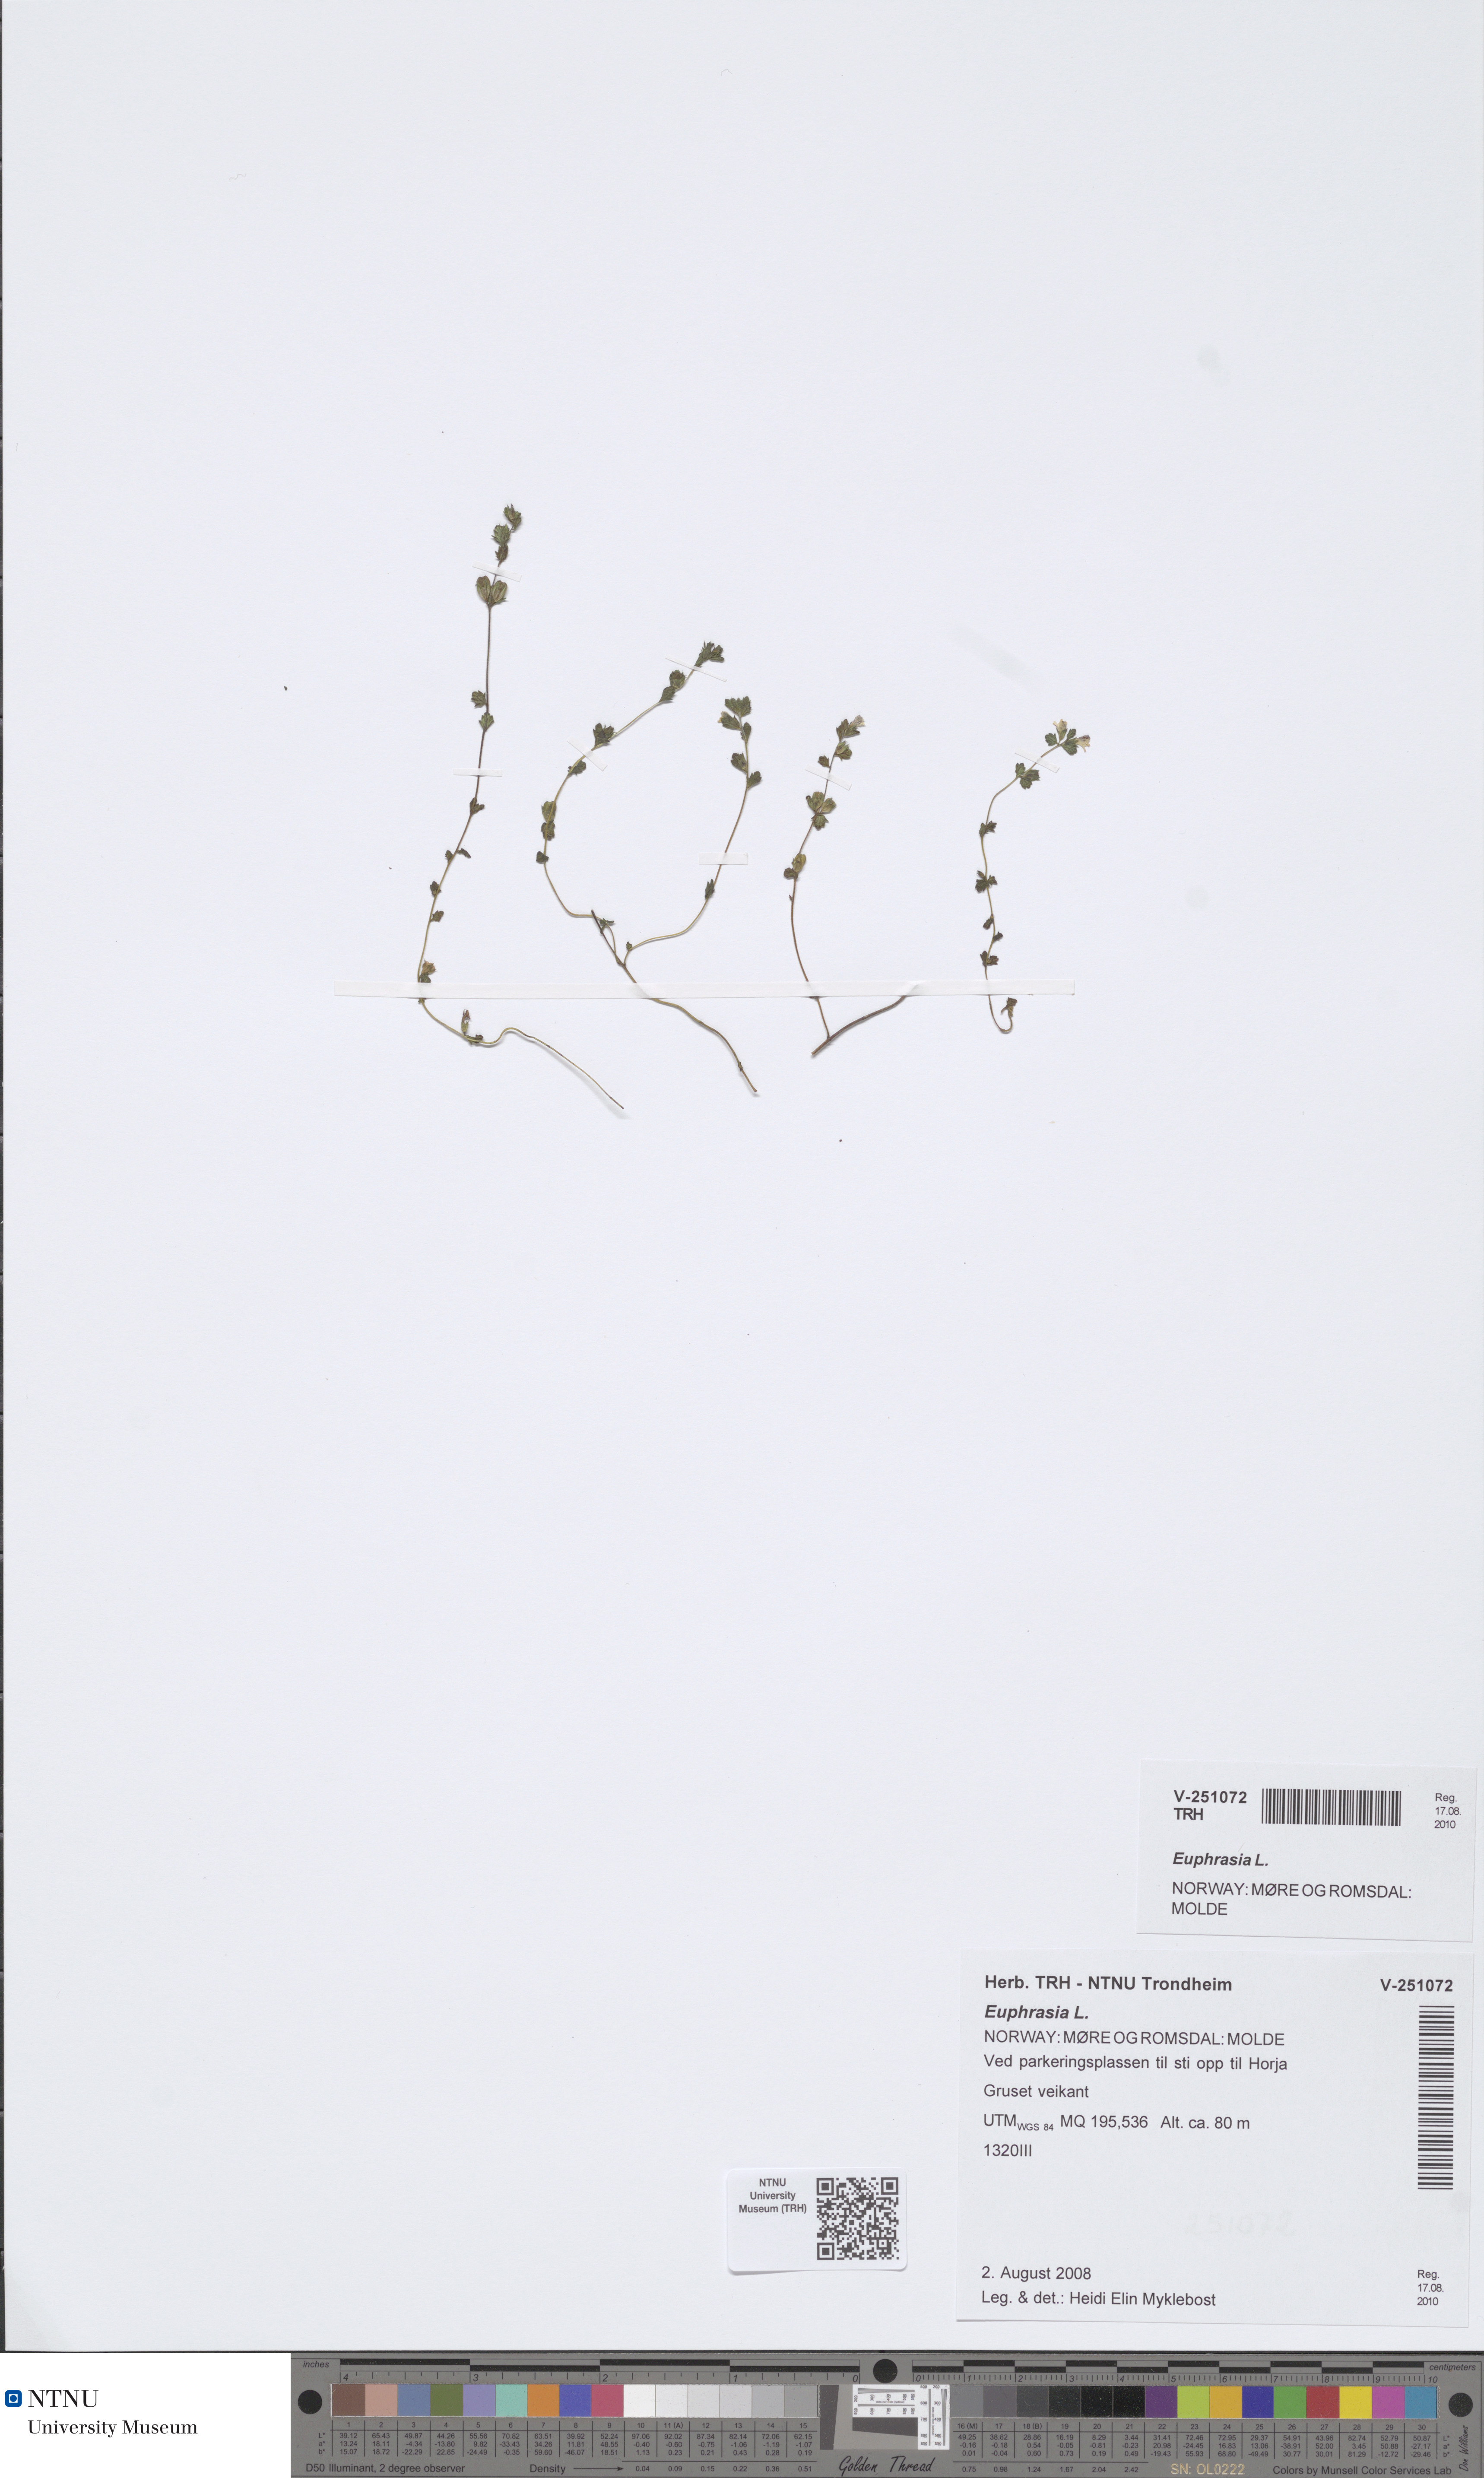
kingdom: Plantae
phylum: Tracheophyta
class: Magnoliopsida
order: Lamiales
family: Orobanchaceae
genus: Euphrasia
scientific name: Euphrasia
